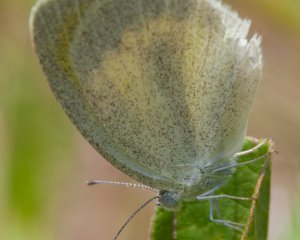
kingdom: Animalia
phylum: Arthropoda
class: Insecta
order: Lepidoptera
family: Pieridae
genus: Eurema
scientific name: Eurema daira
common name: Barred Yellow
